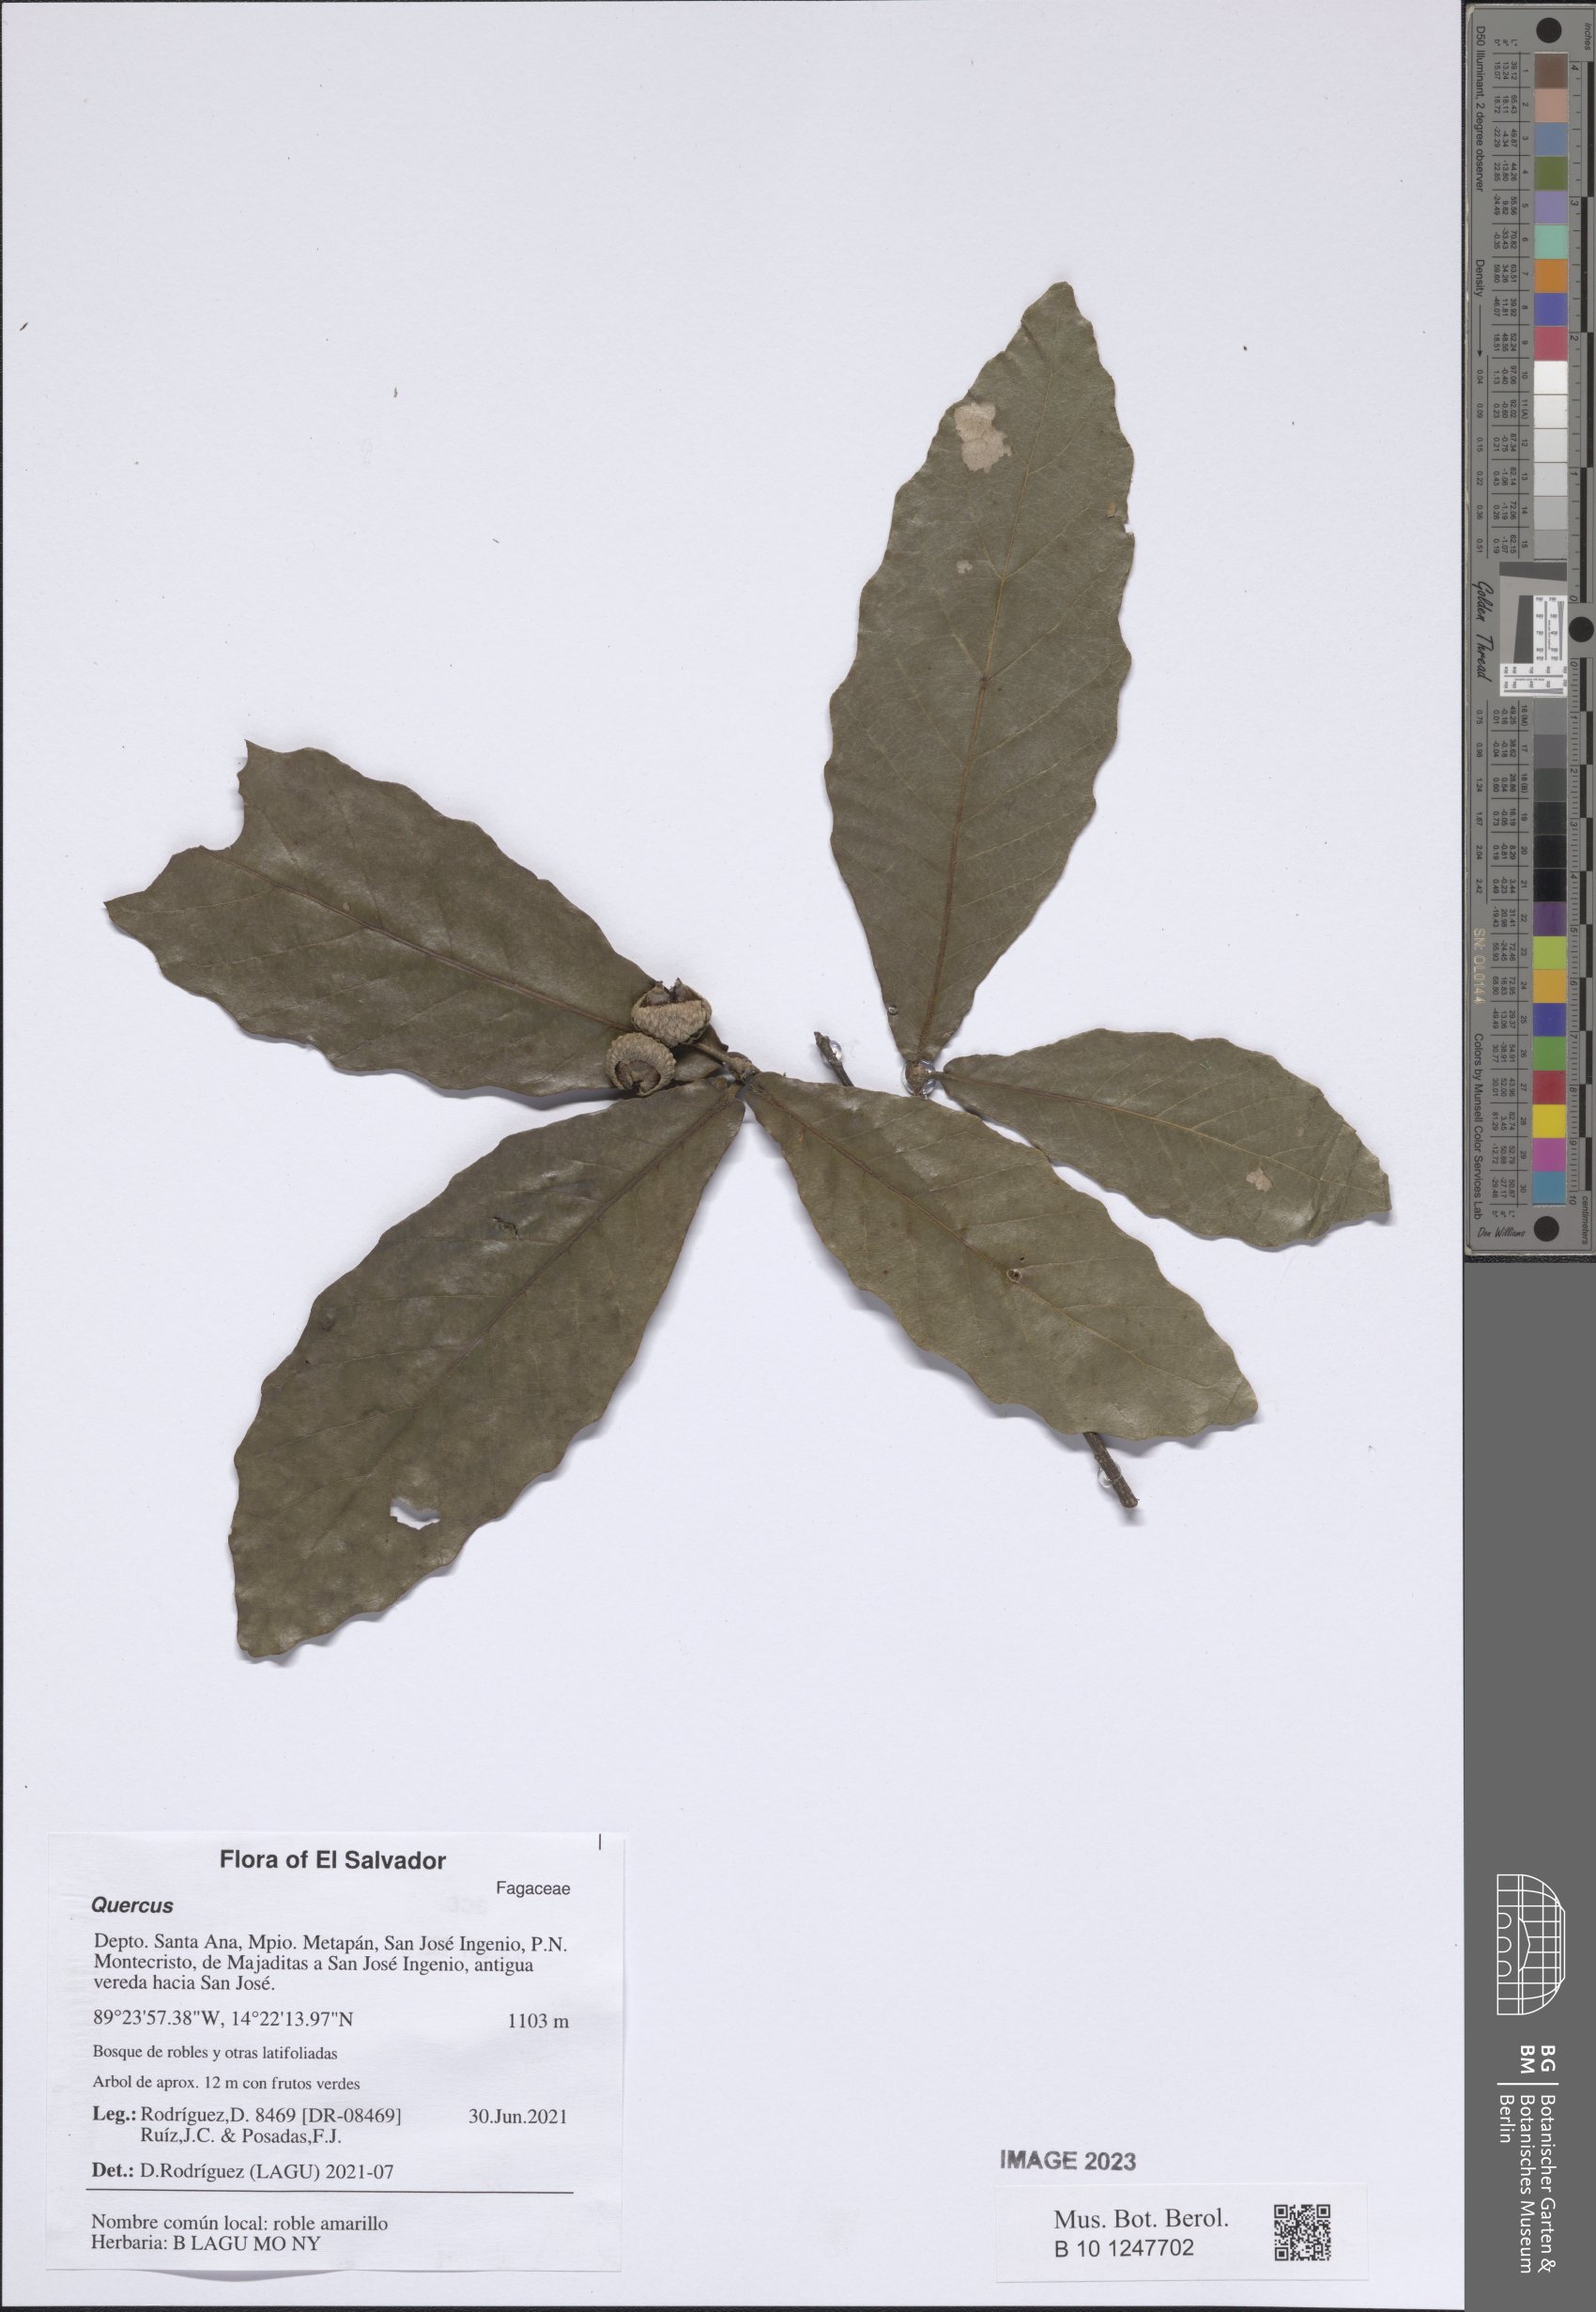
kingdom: Plantae
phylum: Tracheophyta
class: Magnoliopsida
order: Fagales
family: Fagaceae
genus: Quercus
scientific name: Quercus peduncularis
